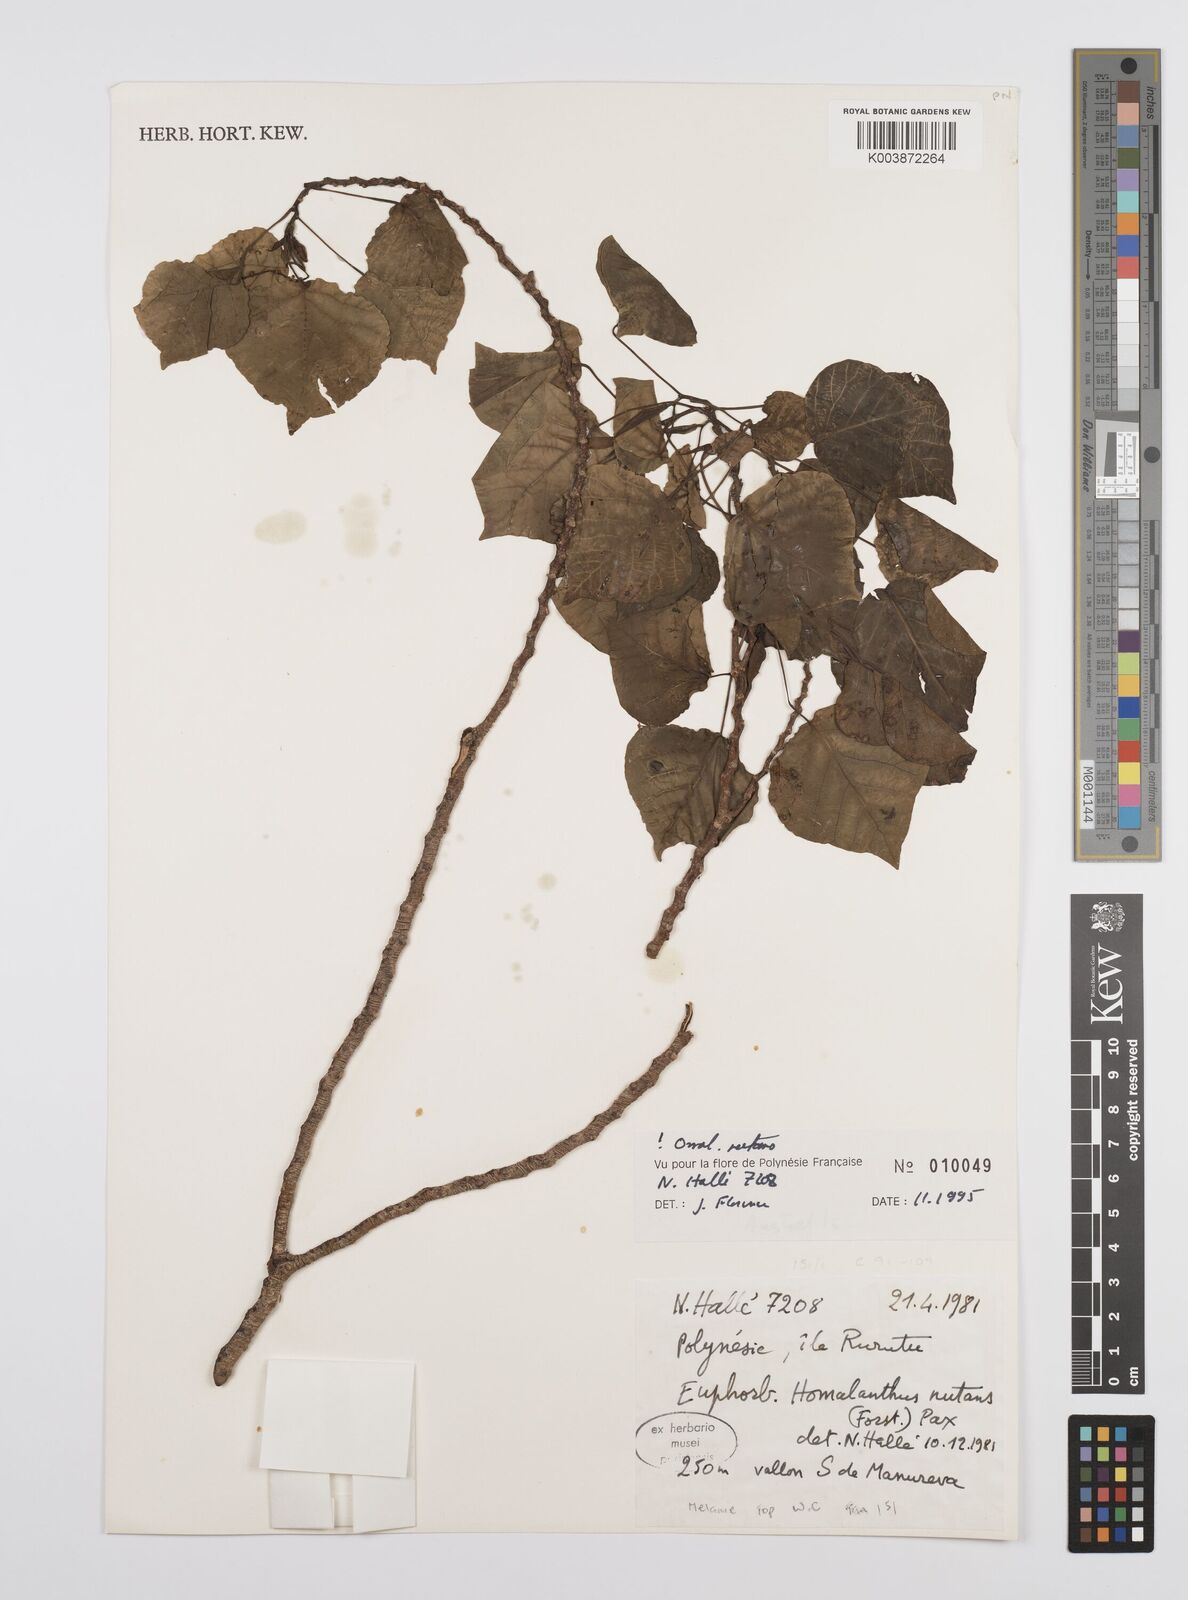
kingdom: Plantae
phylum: Tracheophyta
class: Magnoliopsida
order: Malpighiales
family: Euphorbiaceae
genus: Homalanthus
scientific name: Homalanthus nutans
